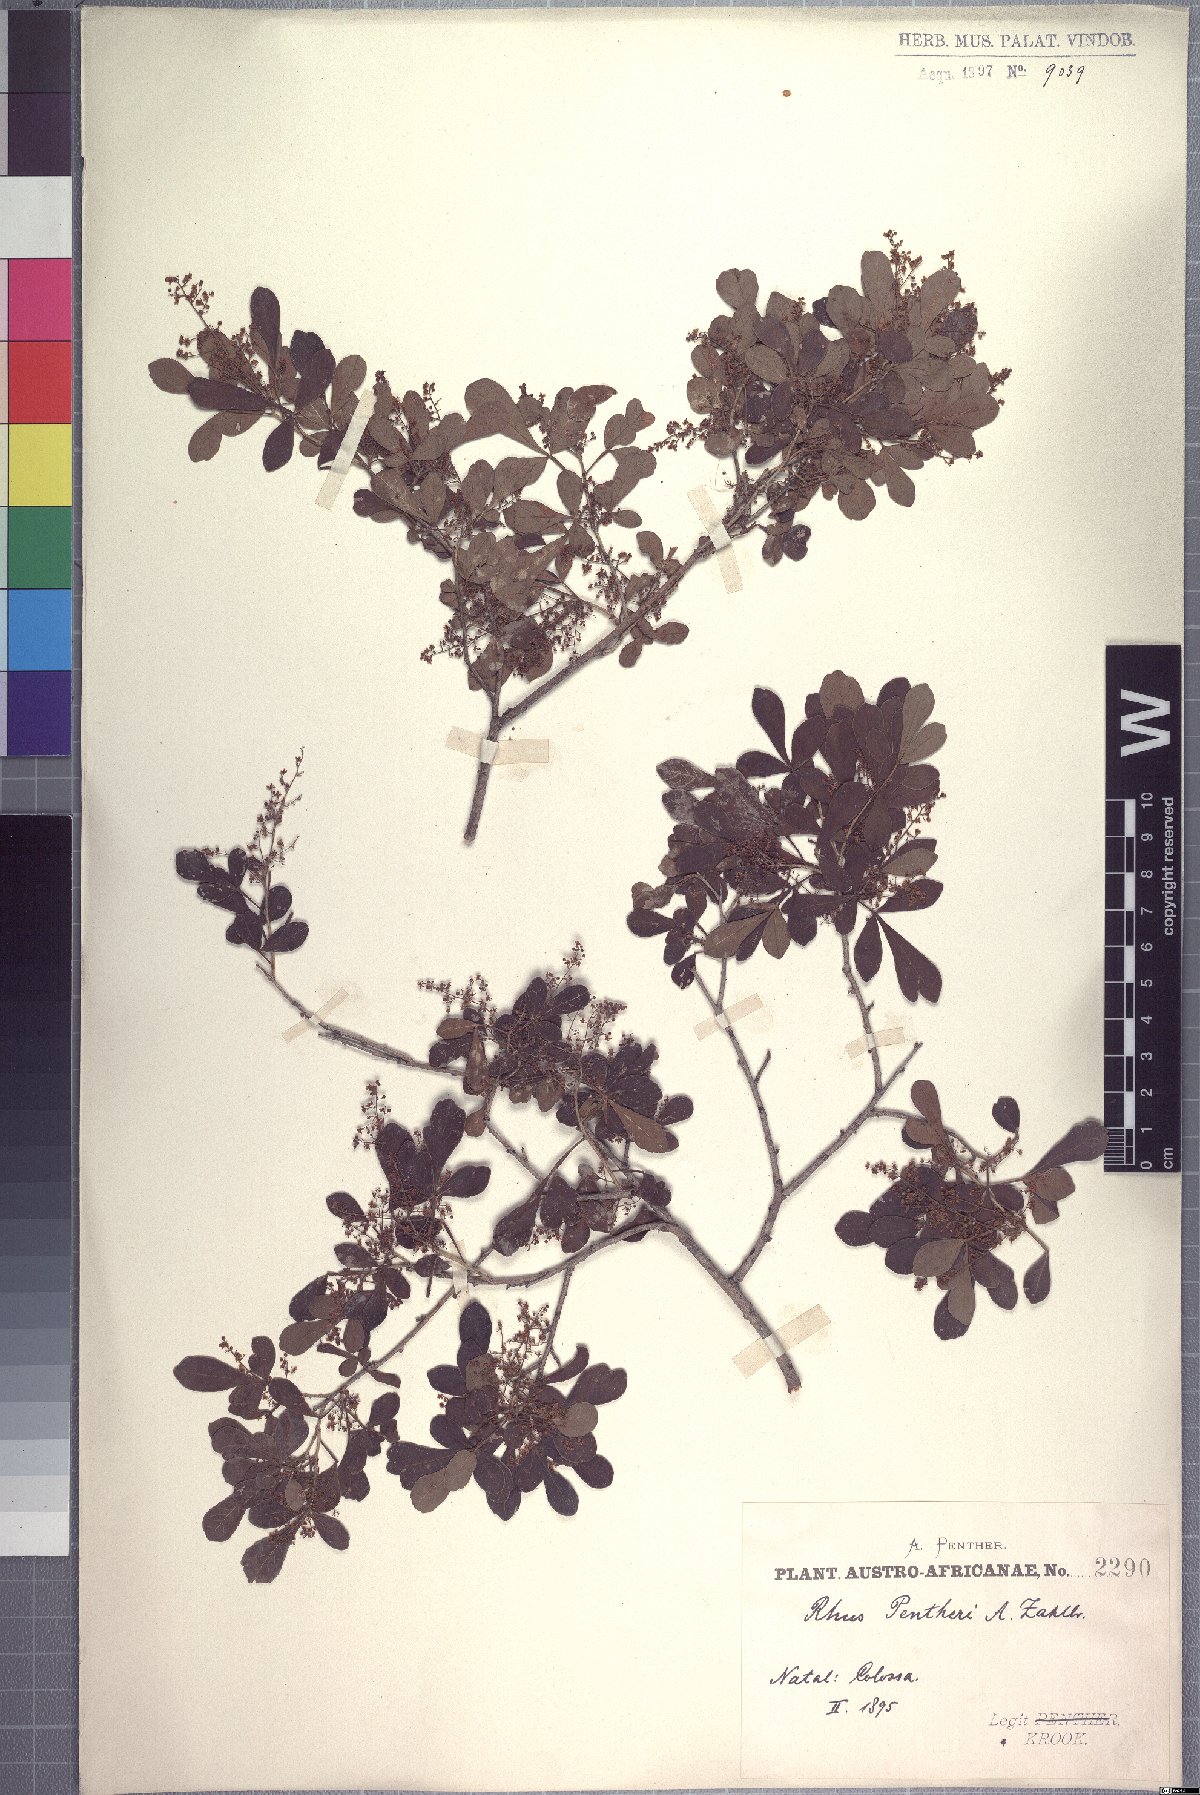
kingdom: Plantae
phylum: Tracheophyta
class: Magnoliopsida
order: Sapindales
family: Anacardiaceae
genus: Searsia
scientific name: Searsia pentheri
